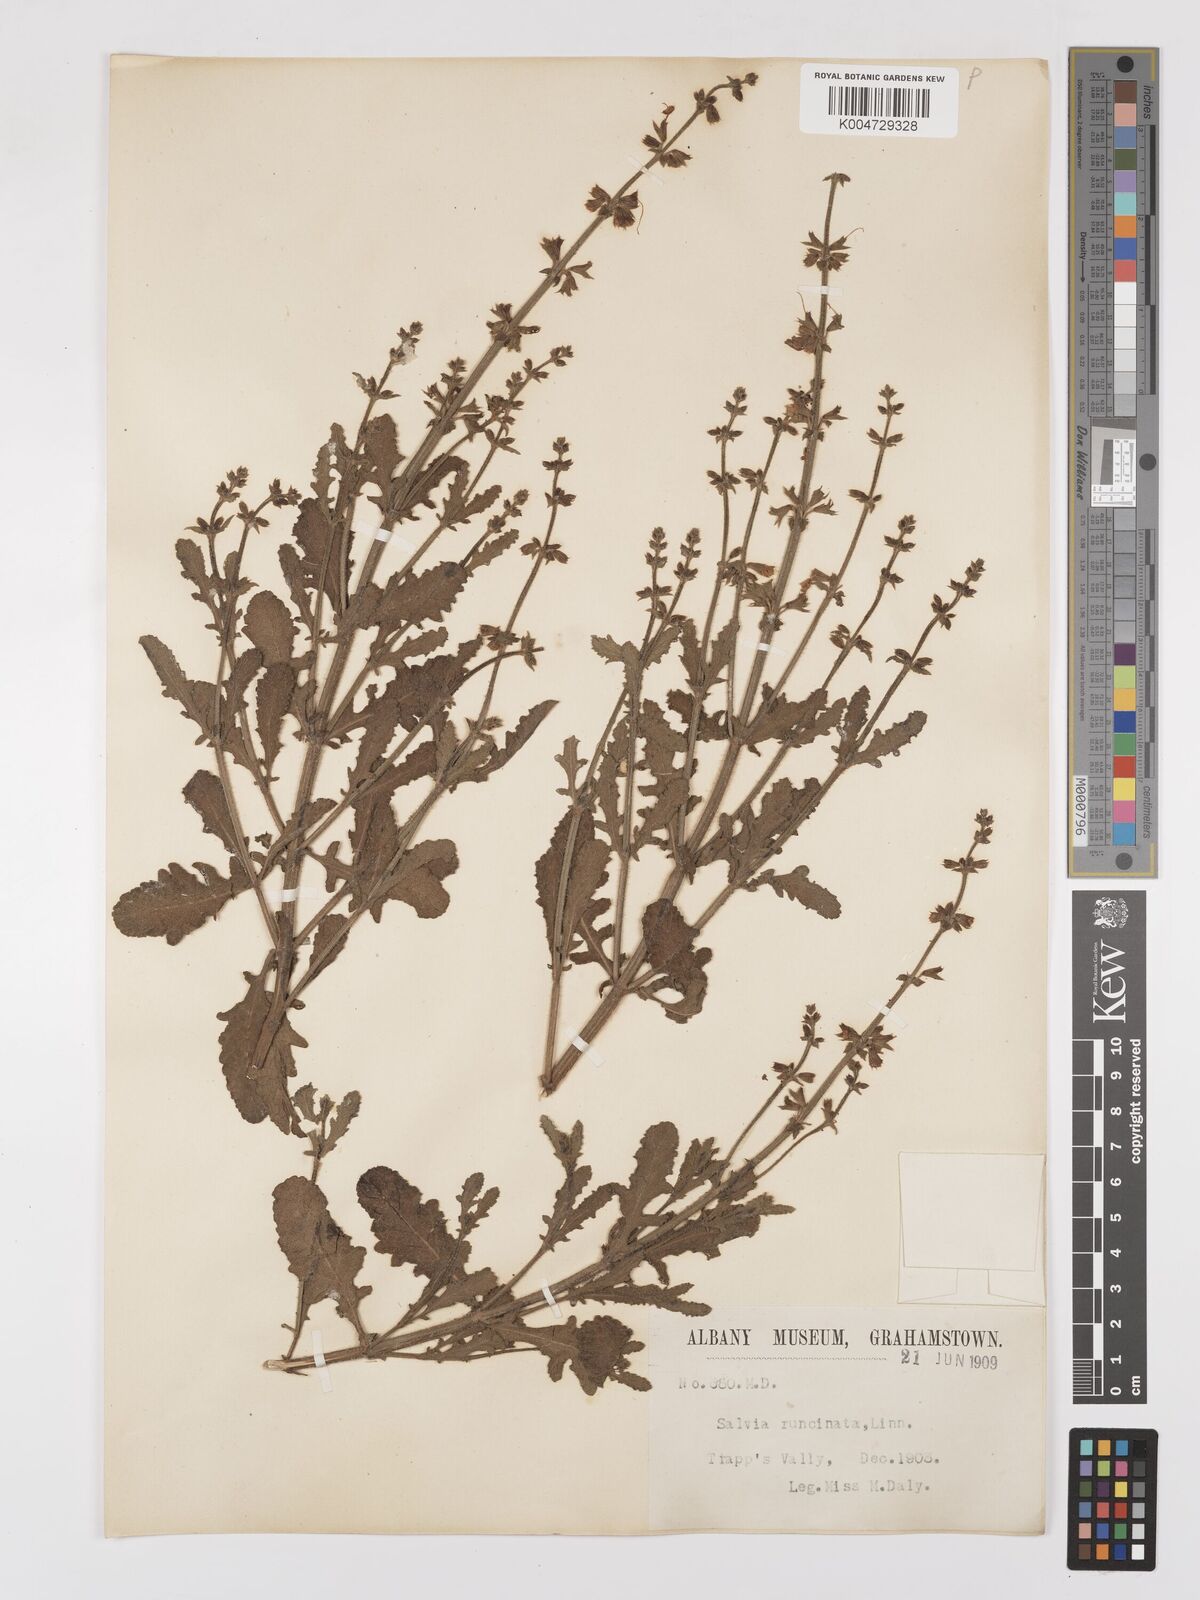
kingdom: Plantae
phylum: Tracheophyta
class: Magnoliopsida
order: Lamiales
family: Lamiaceae
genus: Salvia
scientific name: Salvia runcinata
